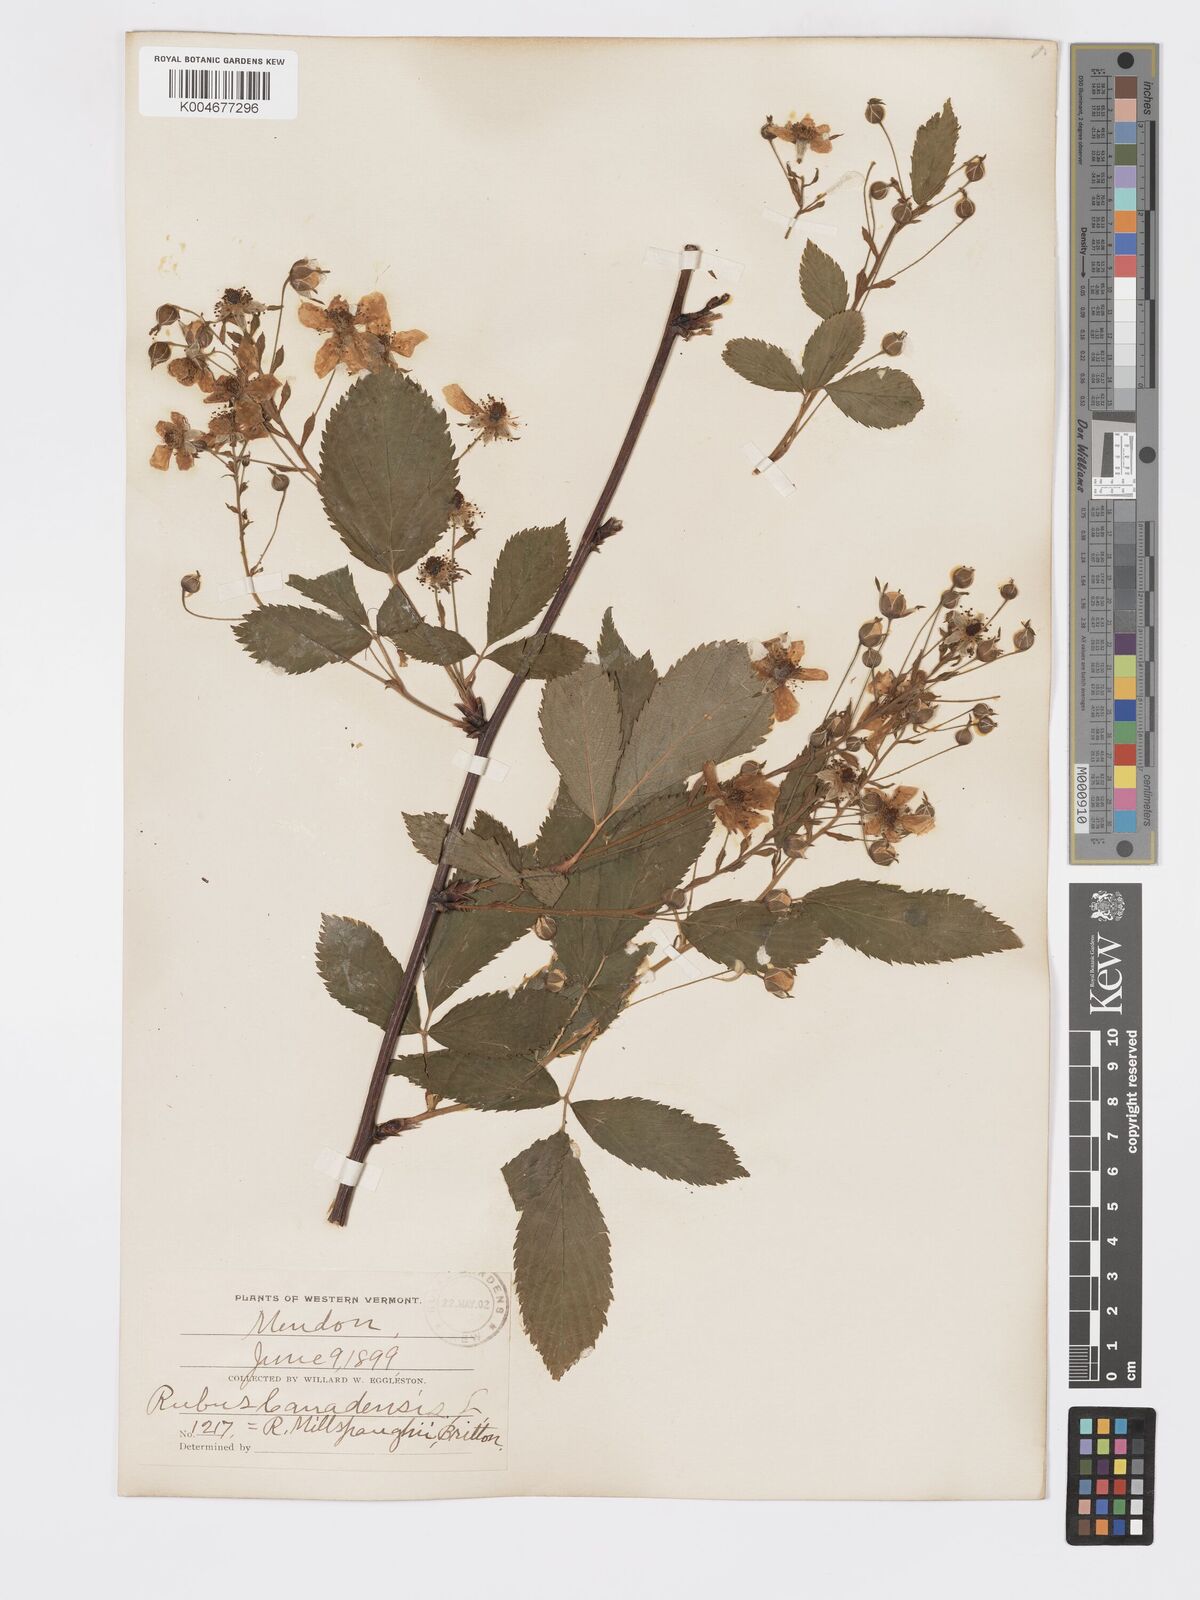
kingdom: Plantae
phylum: Tracheophyta
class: Magnoliopsida
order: Rosales
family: Rosaceae
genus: Rubus
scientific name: Rubus canadensis
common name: Smooth blackberry
